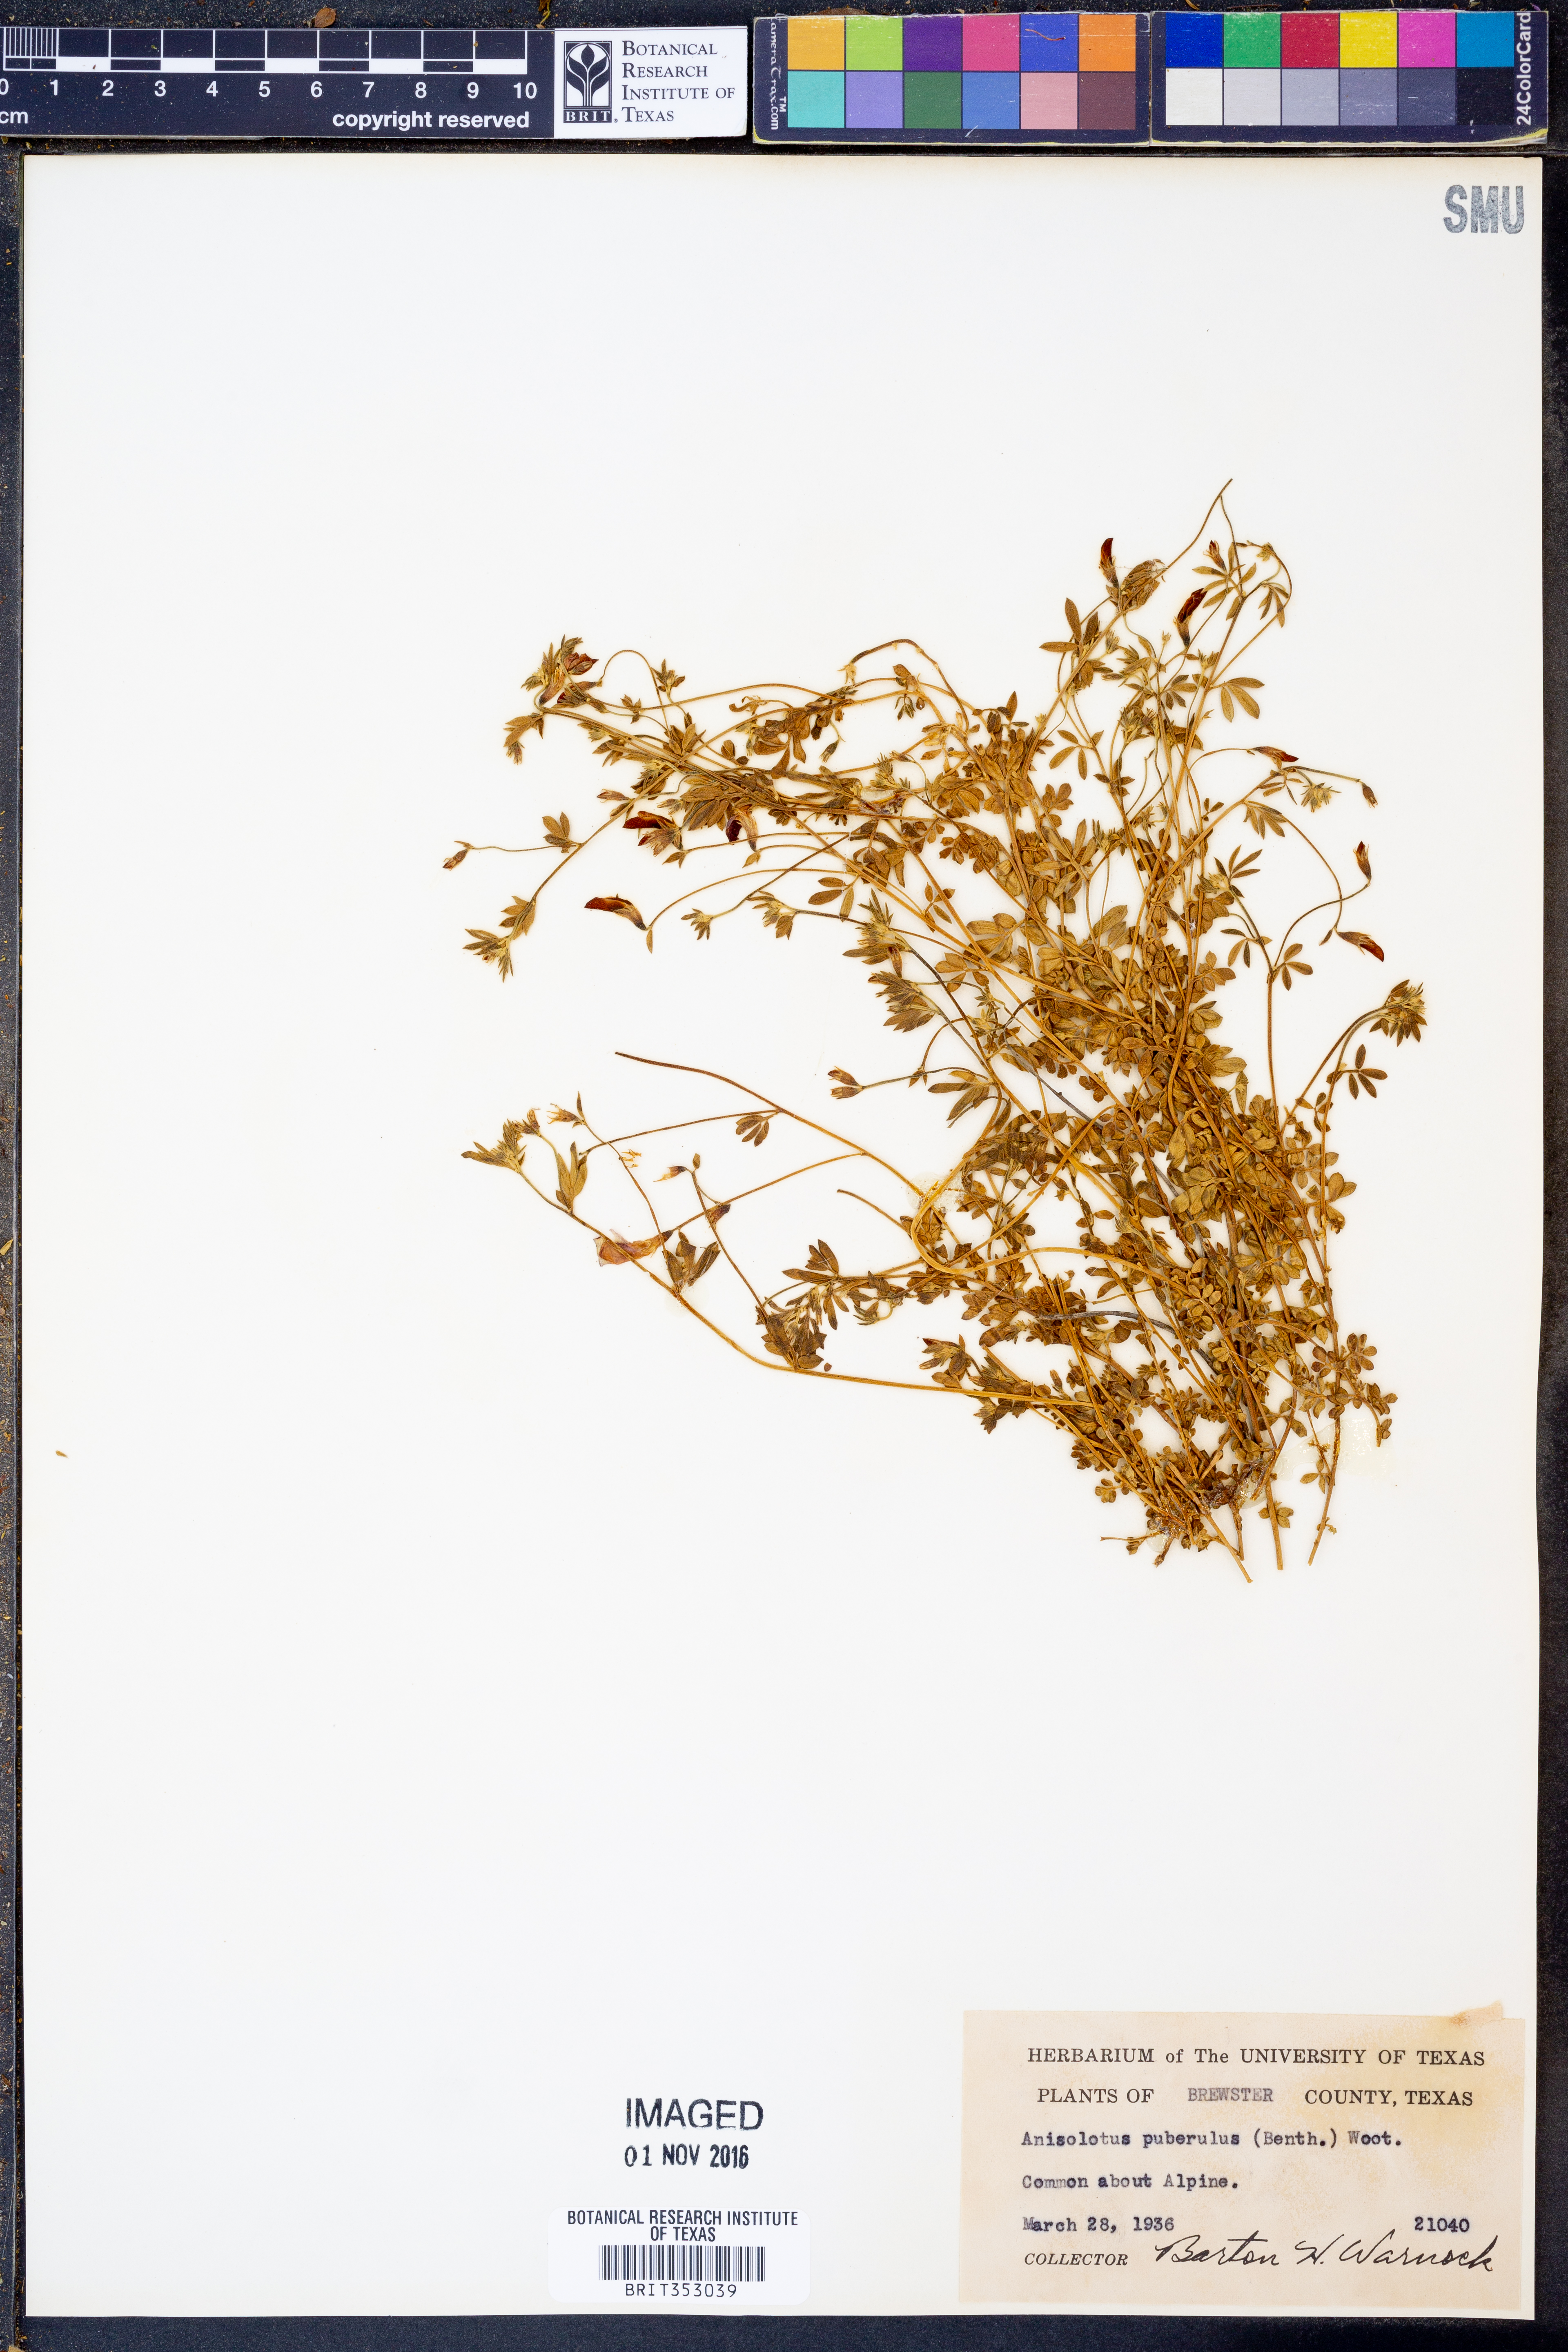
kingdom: Plantae
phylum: Tracheophyta
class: Magnoliopsida
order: Fabales
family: Fabaceae
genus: Acmispon
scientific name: Acmispon oroboides
